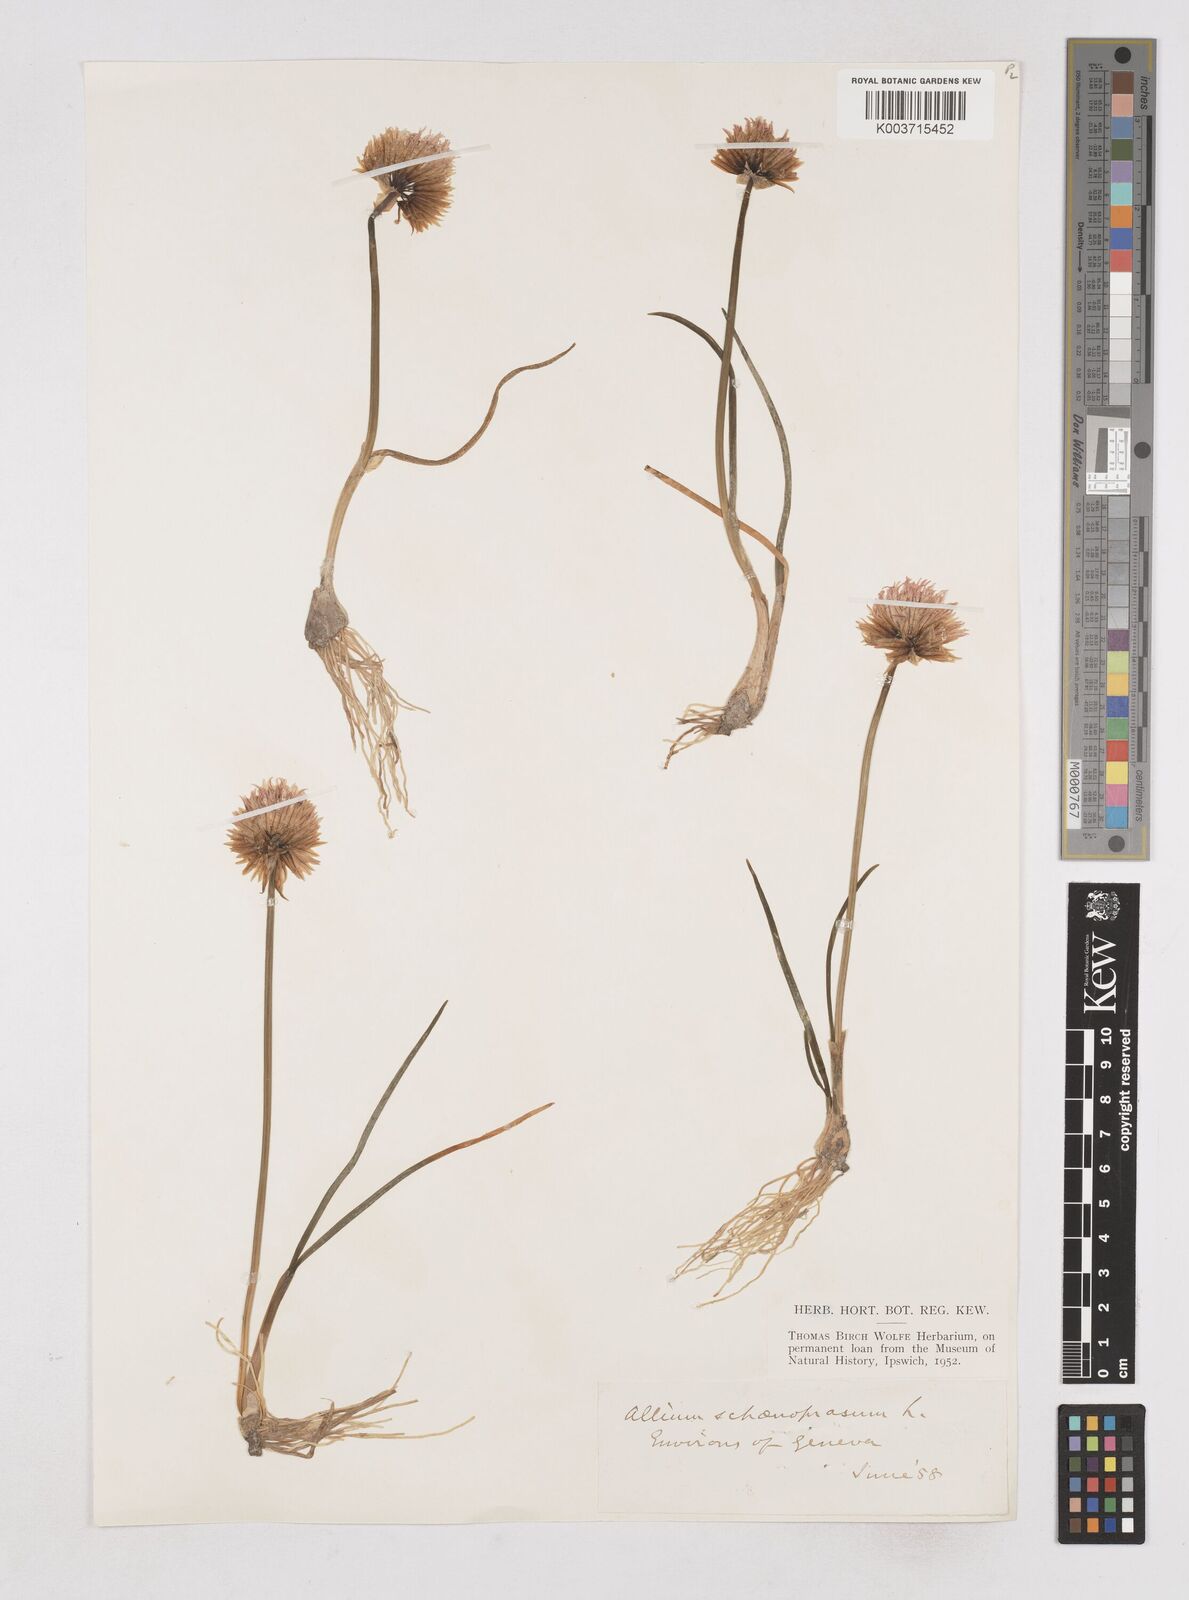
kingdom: Plantae
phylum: Tracheophyta
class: Liliopsida
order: Asparagales
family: Amaryllidaceae
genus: Allium
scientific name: Allium schoenoprasum
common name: Chives
